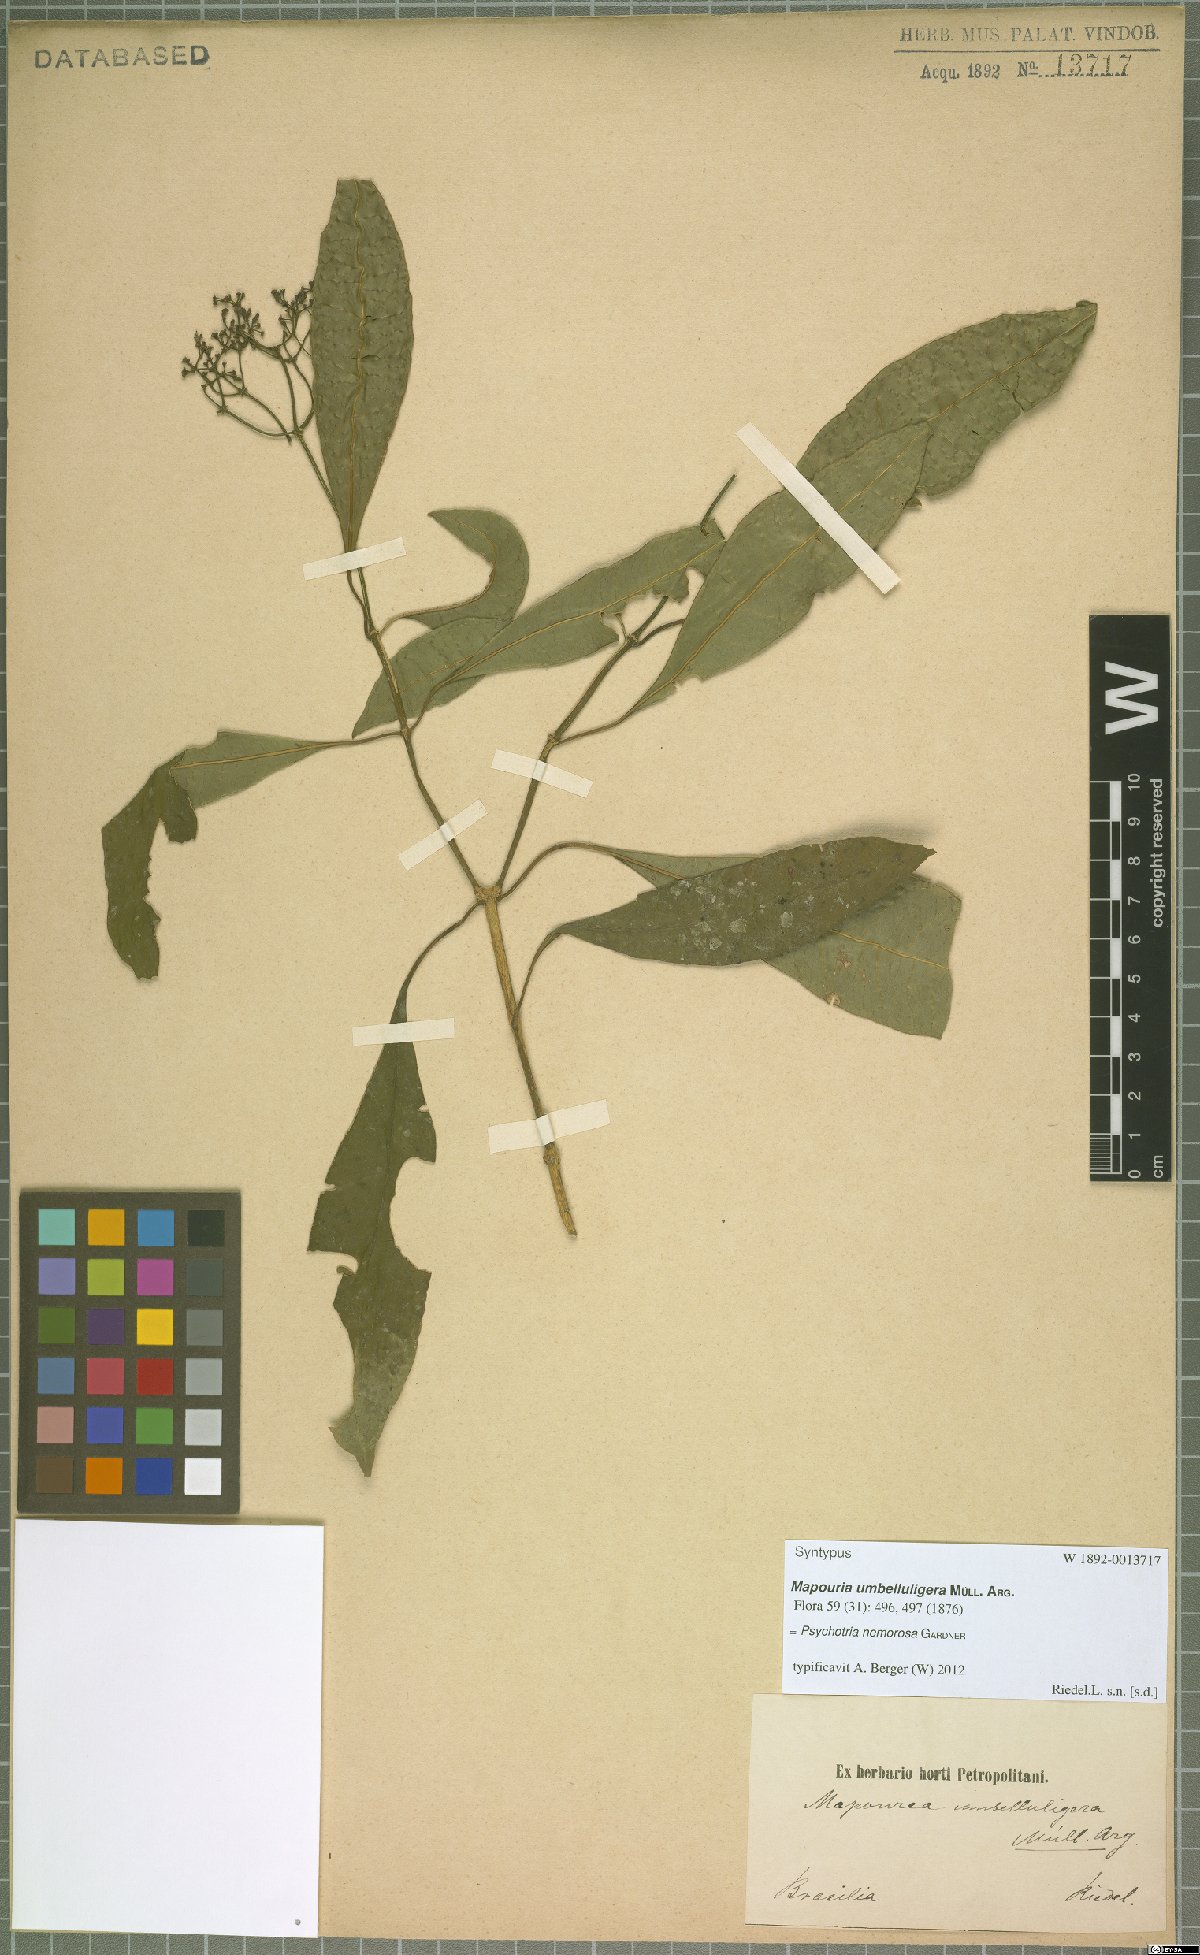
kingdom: Plantae
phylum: Tracheophyta
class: Magnoliopsida
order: Gentianales
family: Rubiaceae
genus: Psychotria
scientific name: Psychotria nemorosa
